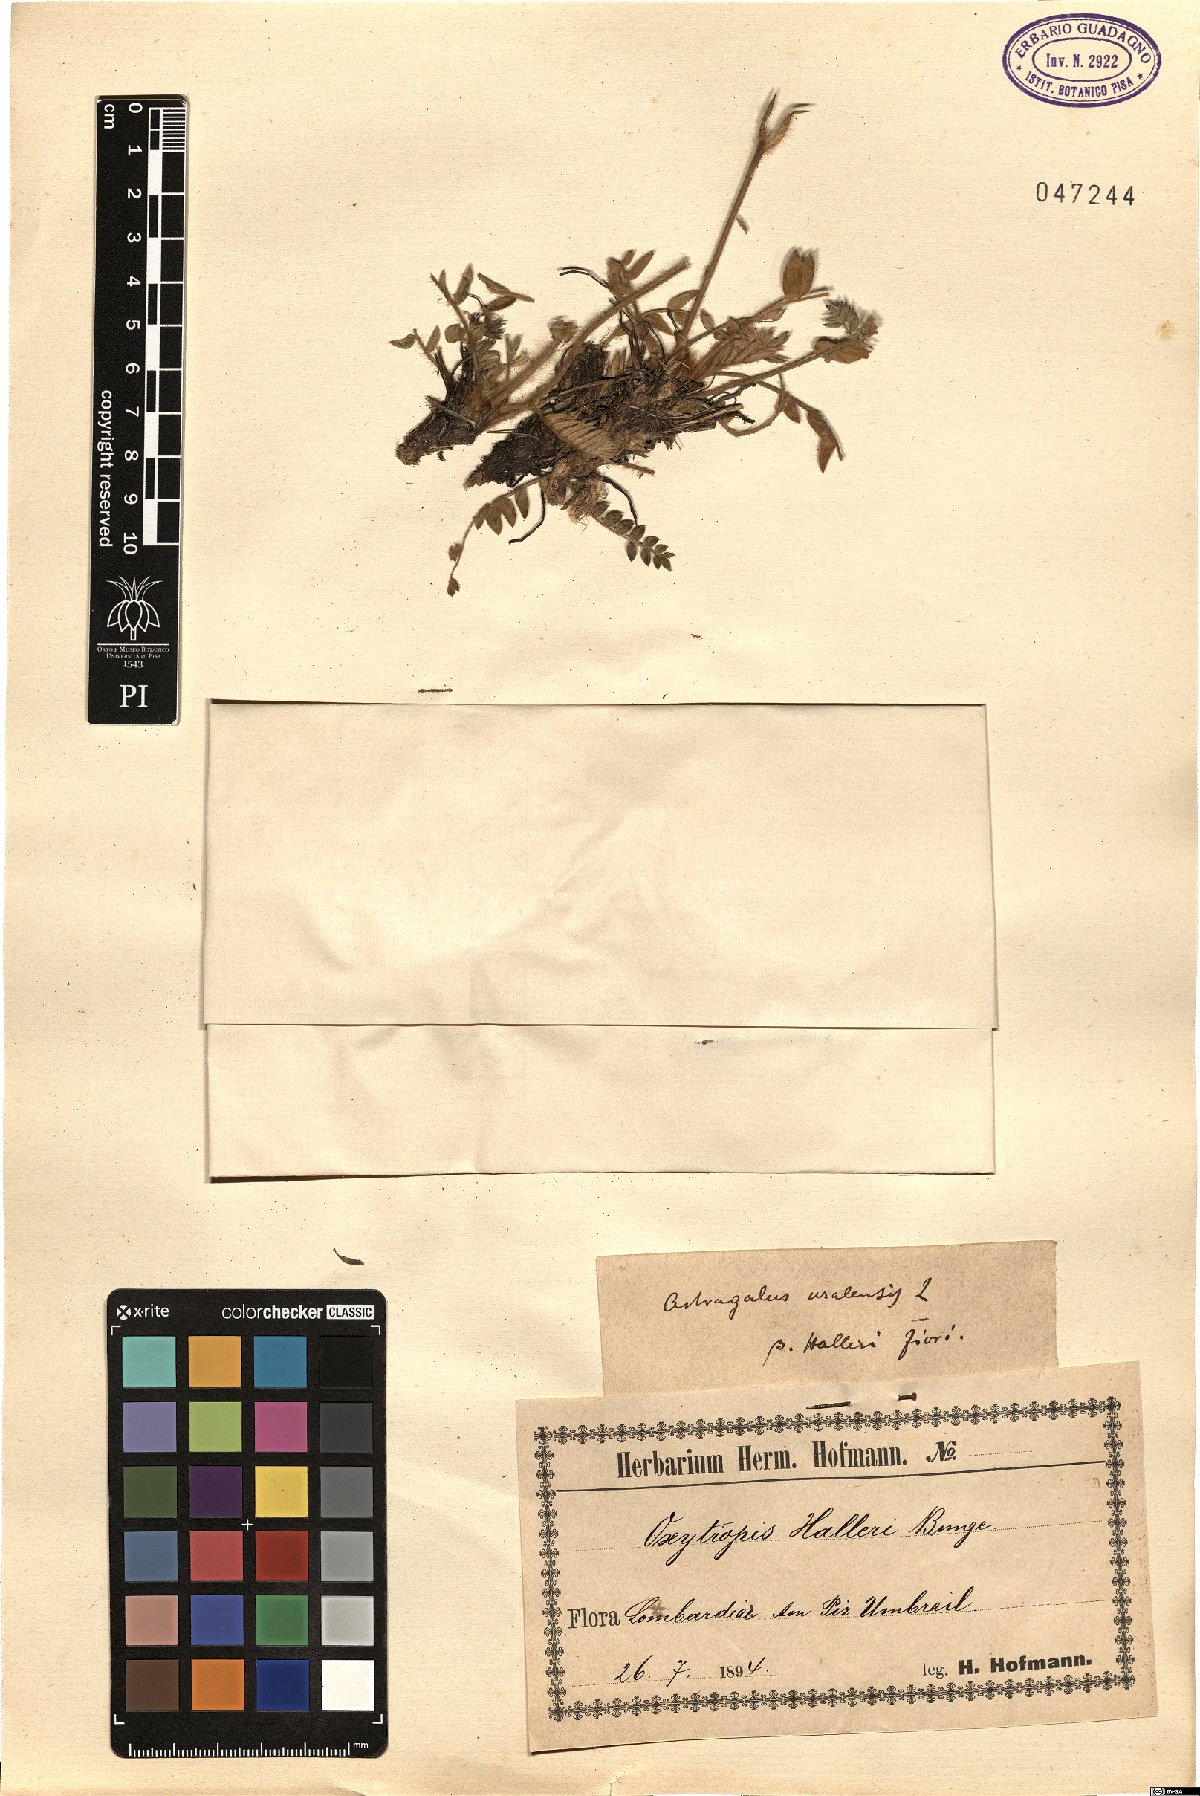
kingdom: Plantae
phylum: Tracheophyta
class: Magnoliopsida
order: Fabales
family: Fabaceae
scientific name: Fabaceae
